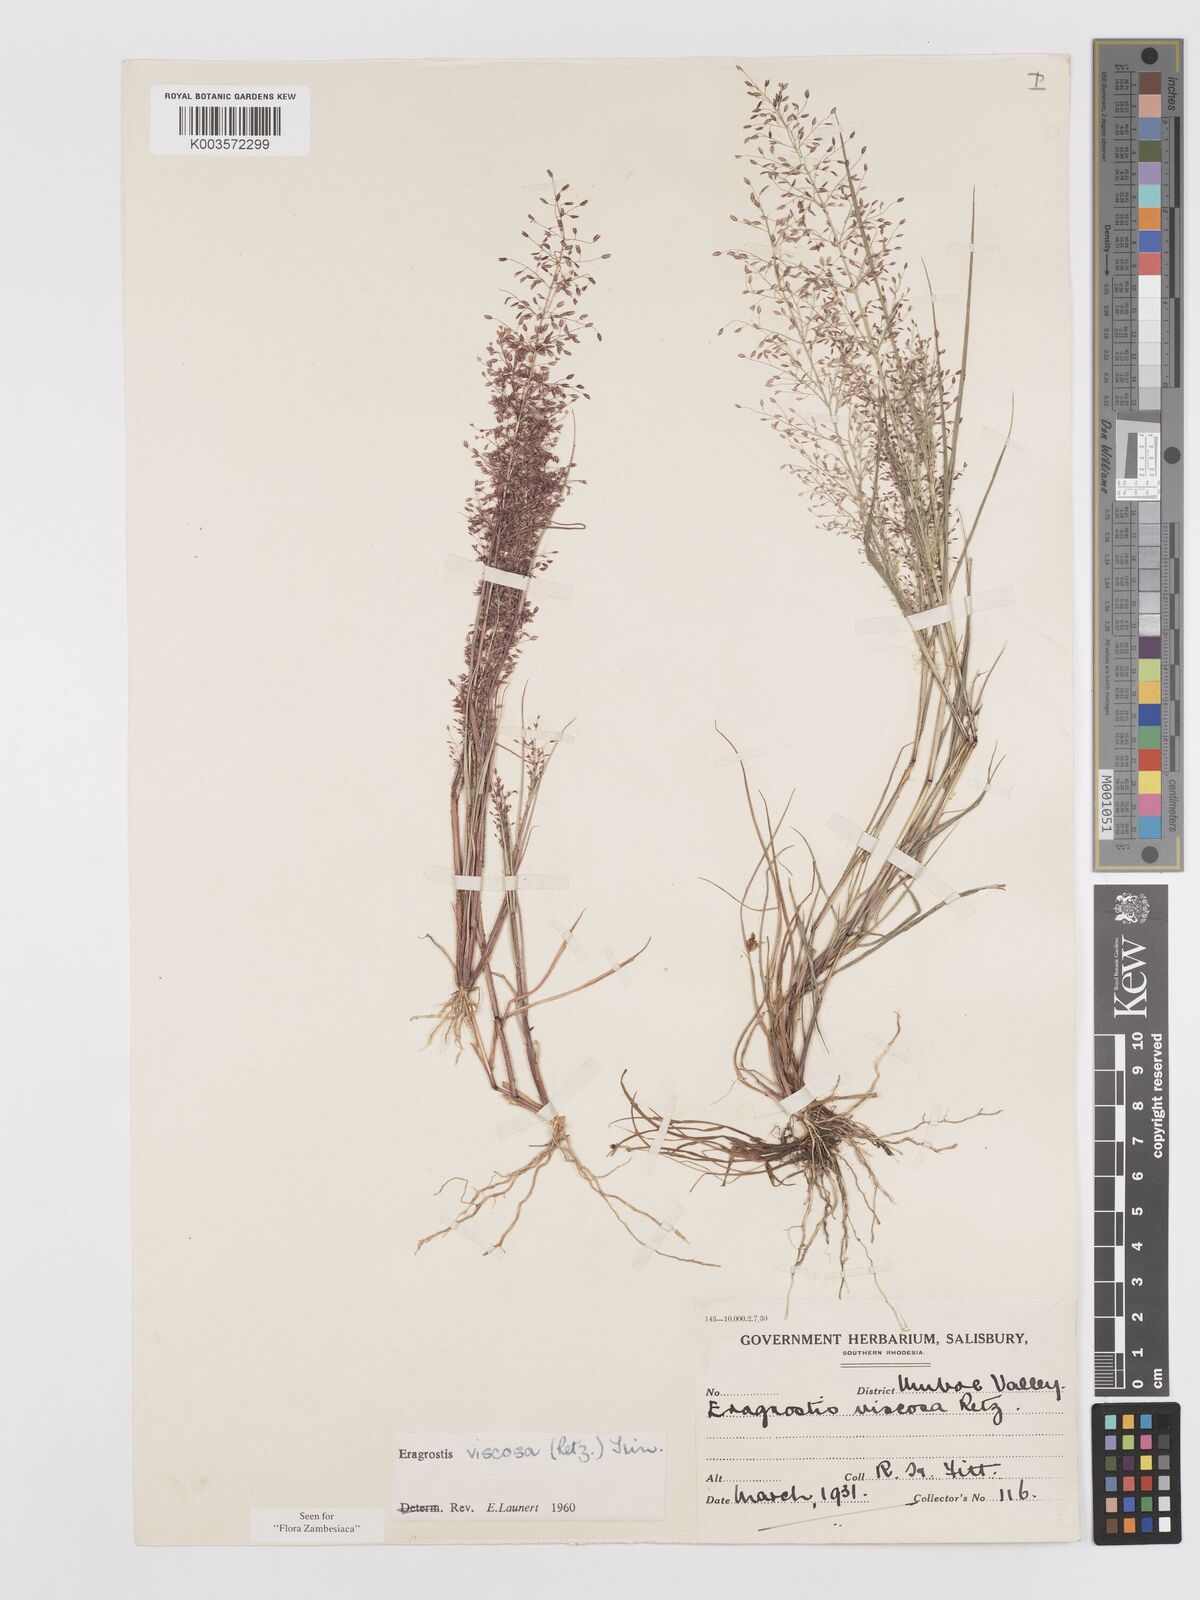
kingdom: Plantae
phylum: Tracheophyta
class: Liliopsida
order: Poales
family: Poaceae
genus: Eragrostis
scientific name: Eragrostis
